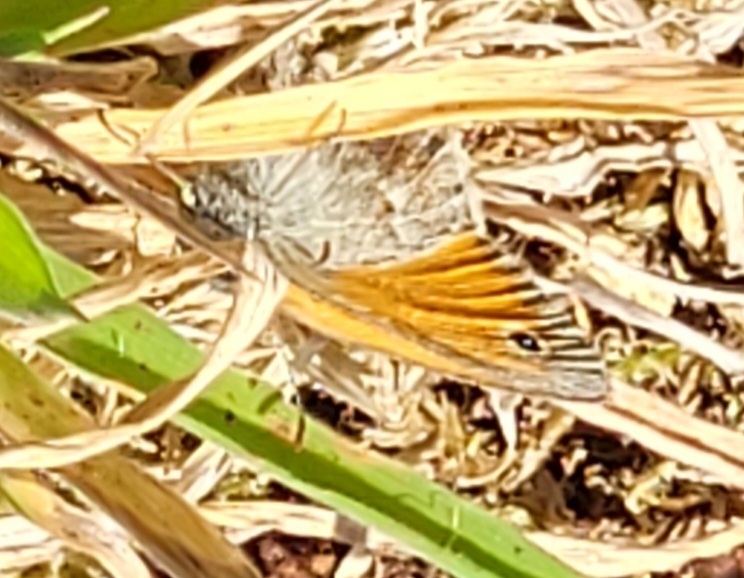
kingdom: Animalia
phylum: Arthropoda
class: Insecta
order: Lepidoptera
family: Nymphalidae
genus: Coenonympha
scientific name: Coenonympha pamphilus
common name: Okkergul randøje
